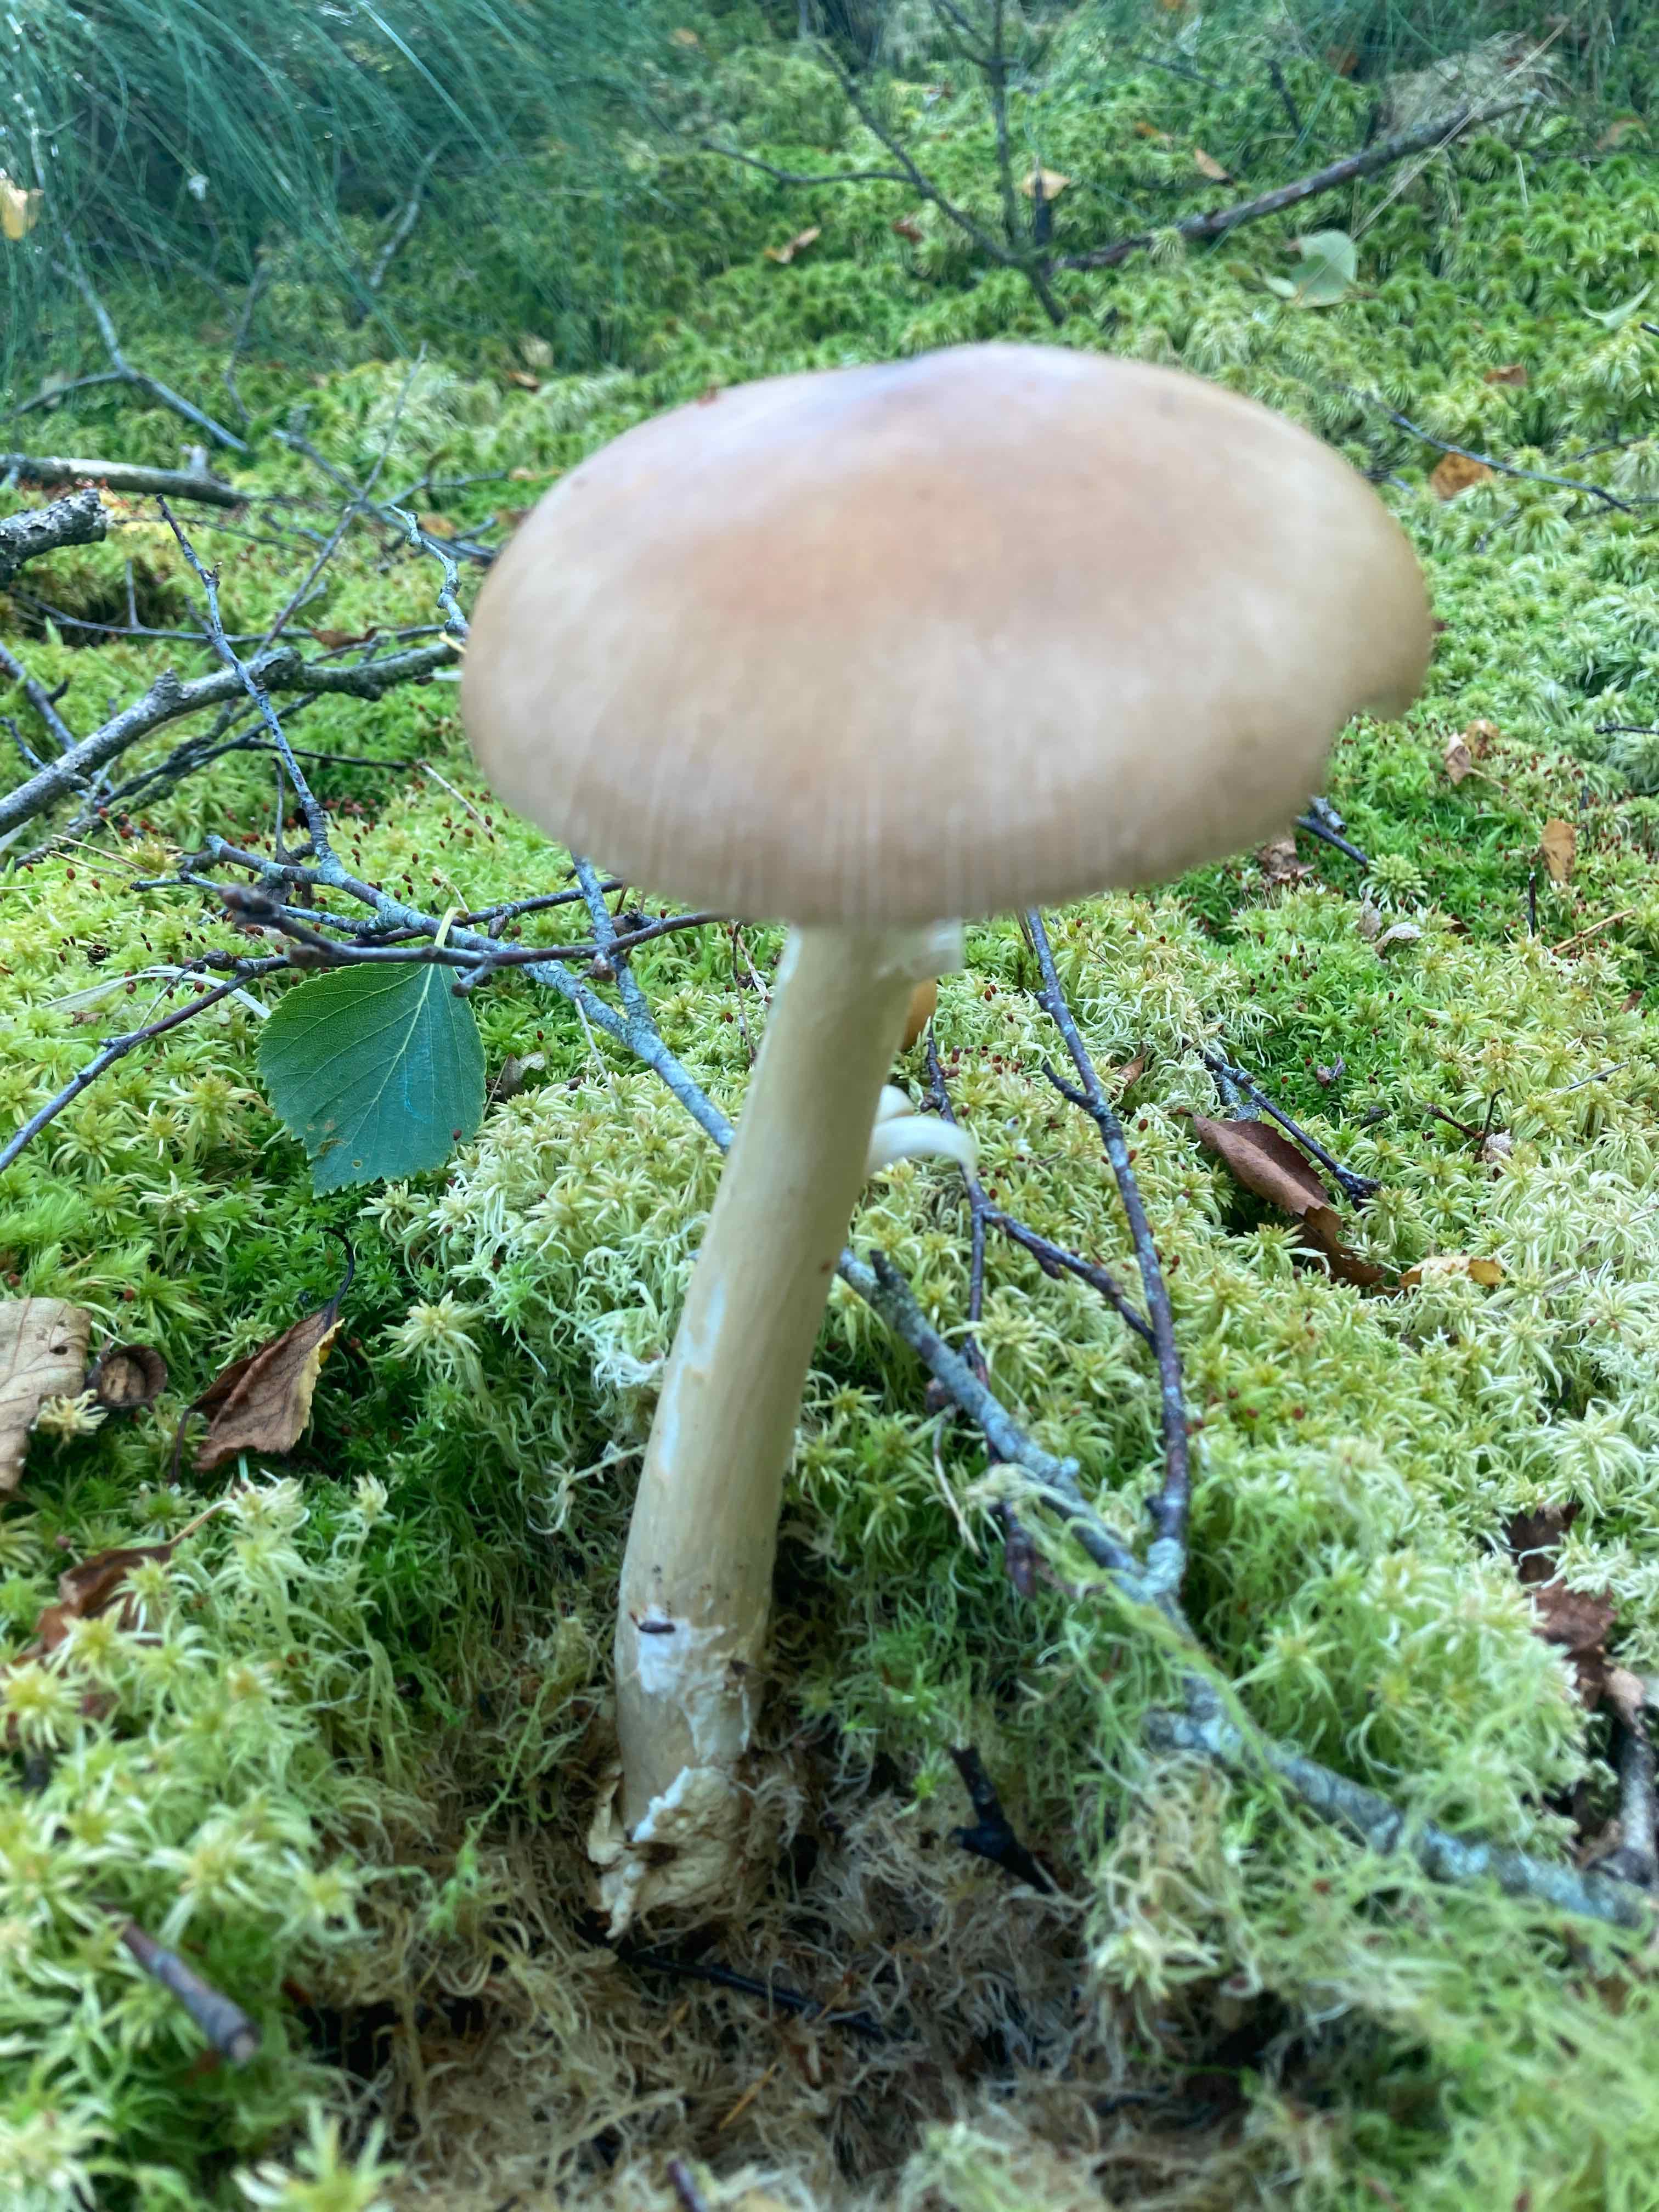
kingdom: Fungi
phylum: Basidiomycota
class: Agaricomycetes
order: Agaricales
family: Amanitaceae
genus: Amanita
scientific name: Amanita fulva
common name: brun kam-fluesvamp
